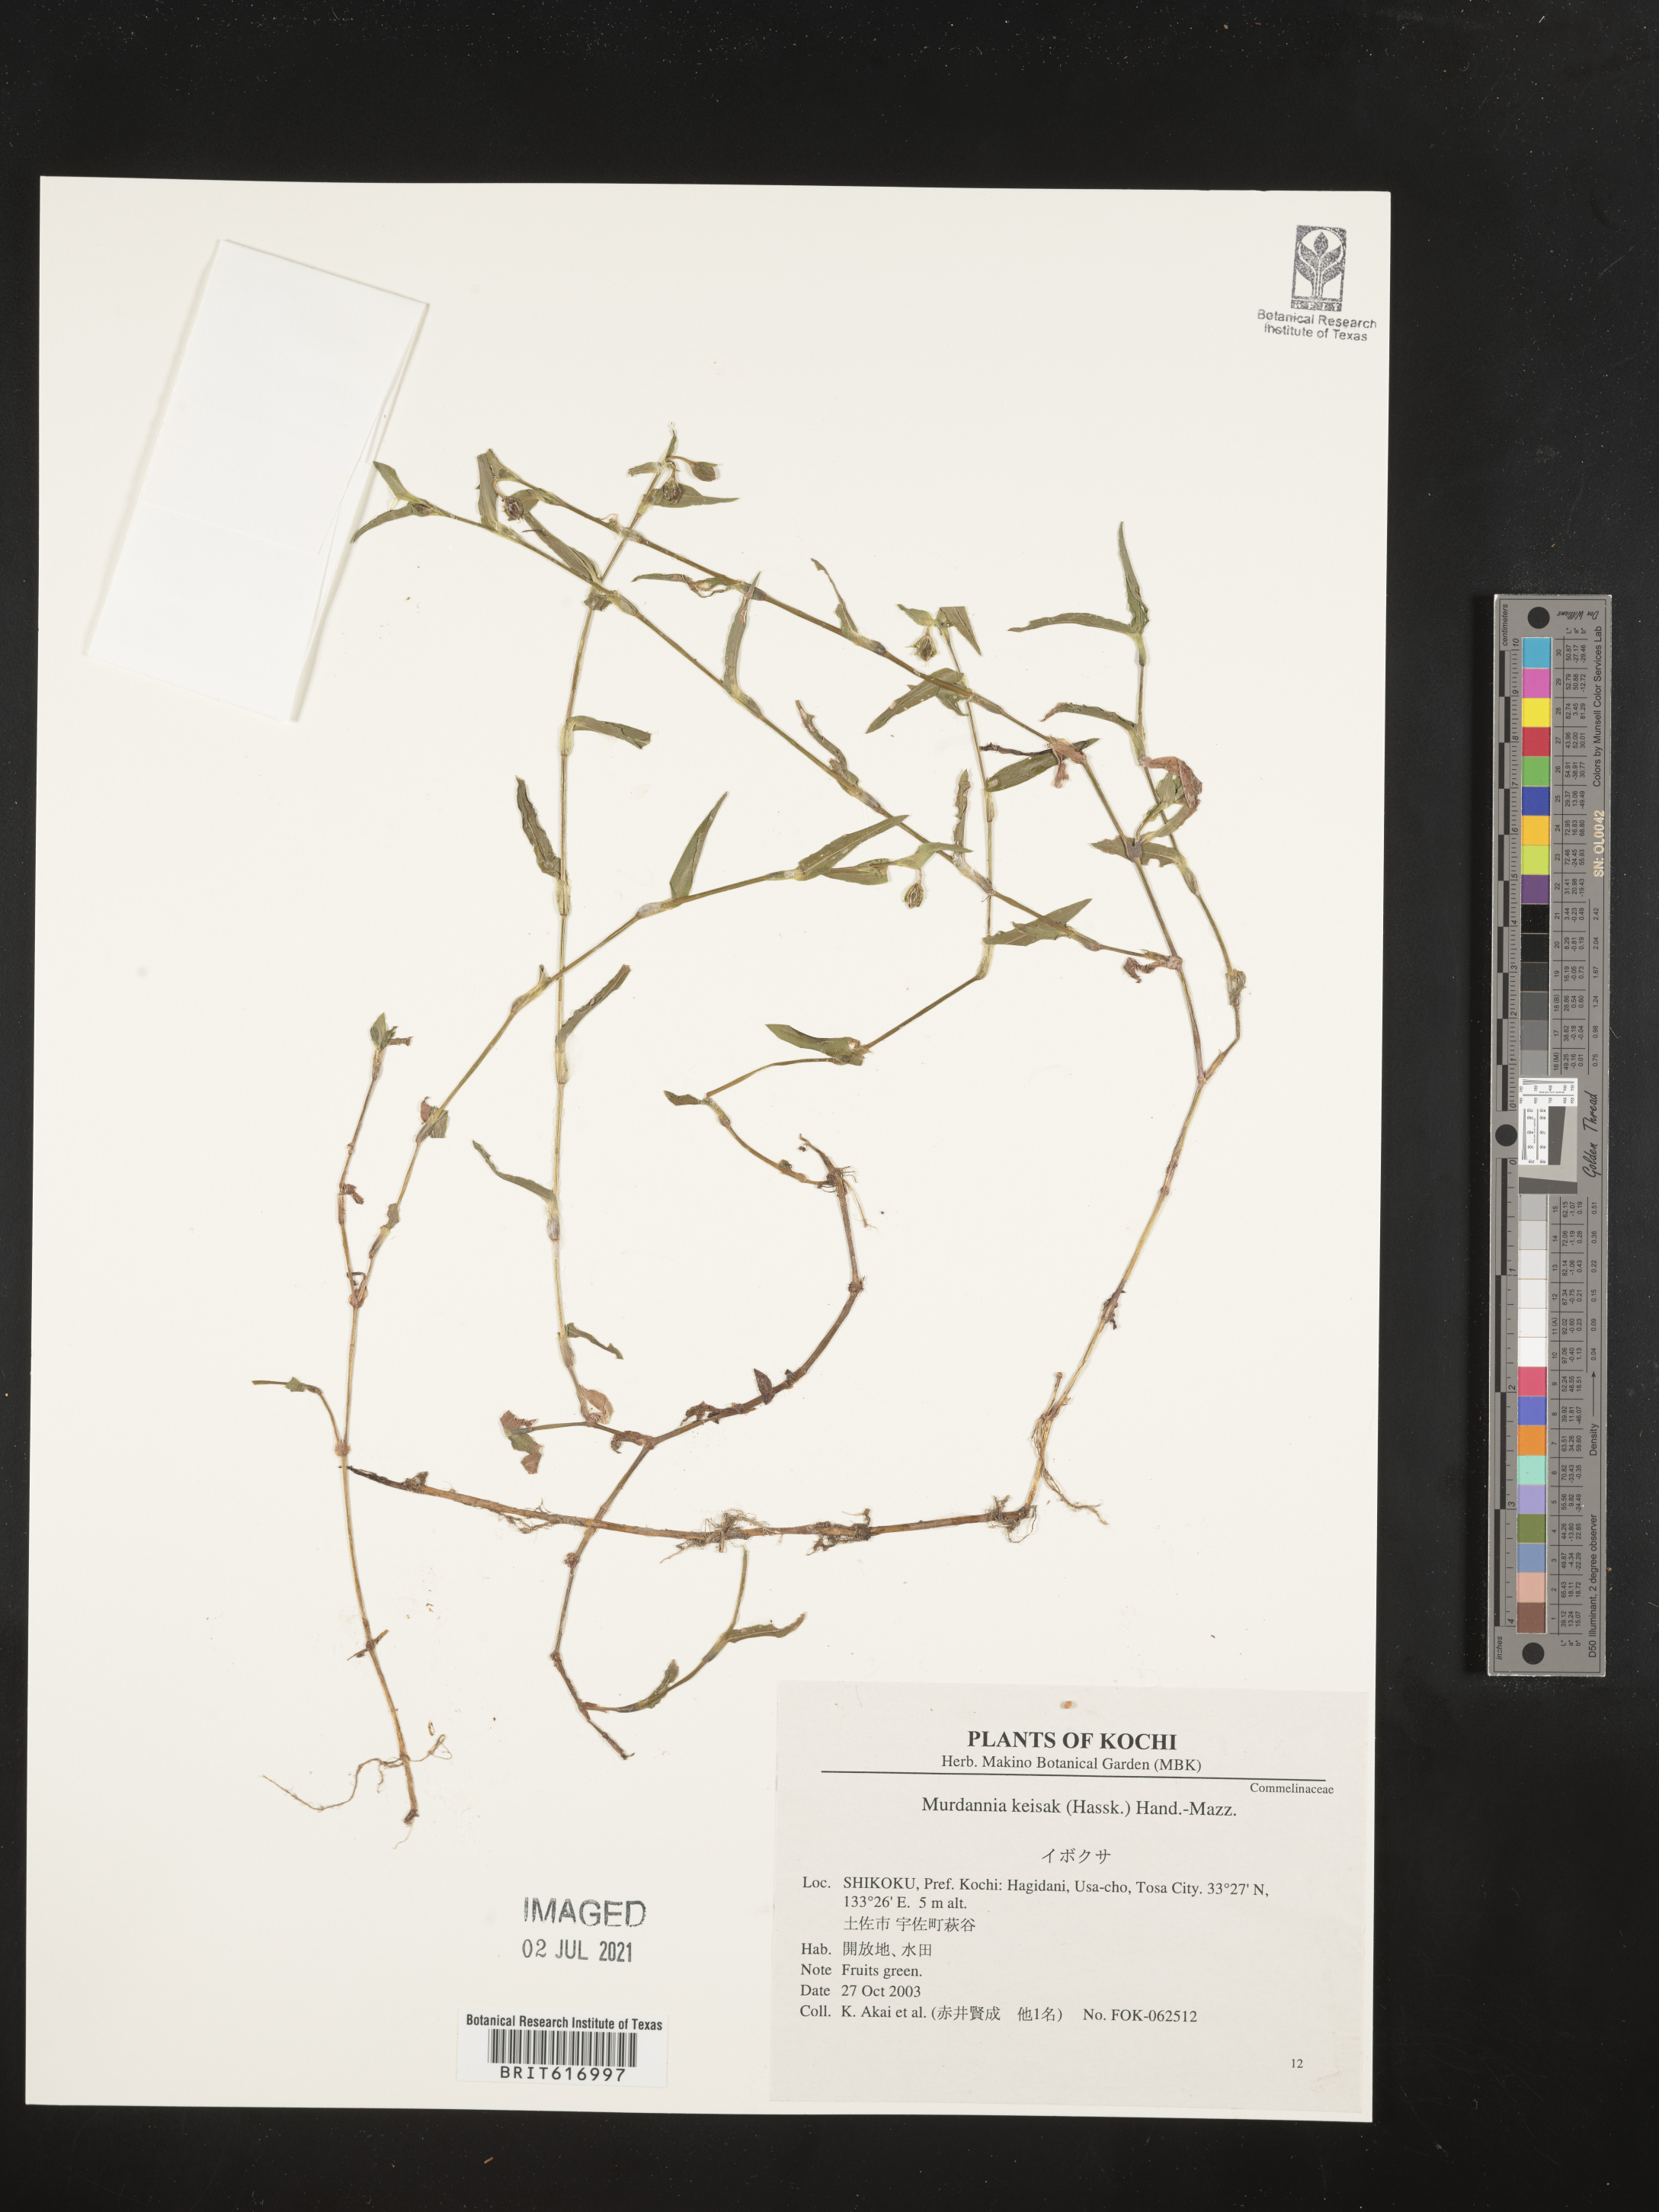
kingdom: Plantae
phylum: Tracheophyta
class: Liliopsida
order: Commelinales
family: Commelinaceae
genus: Murdannia
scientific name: Murdannia keisak
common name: Wartremoving herb
